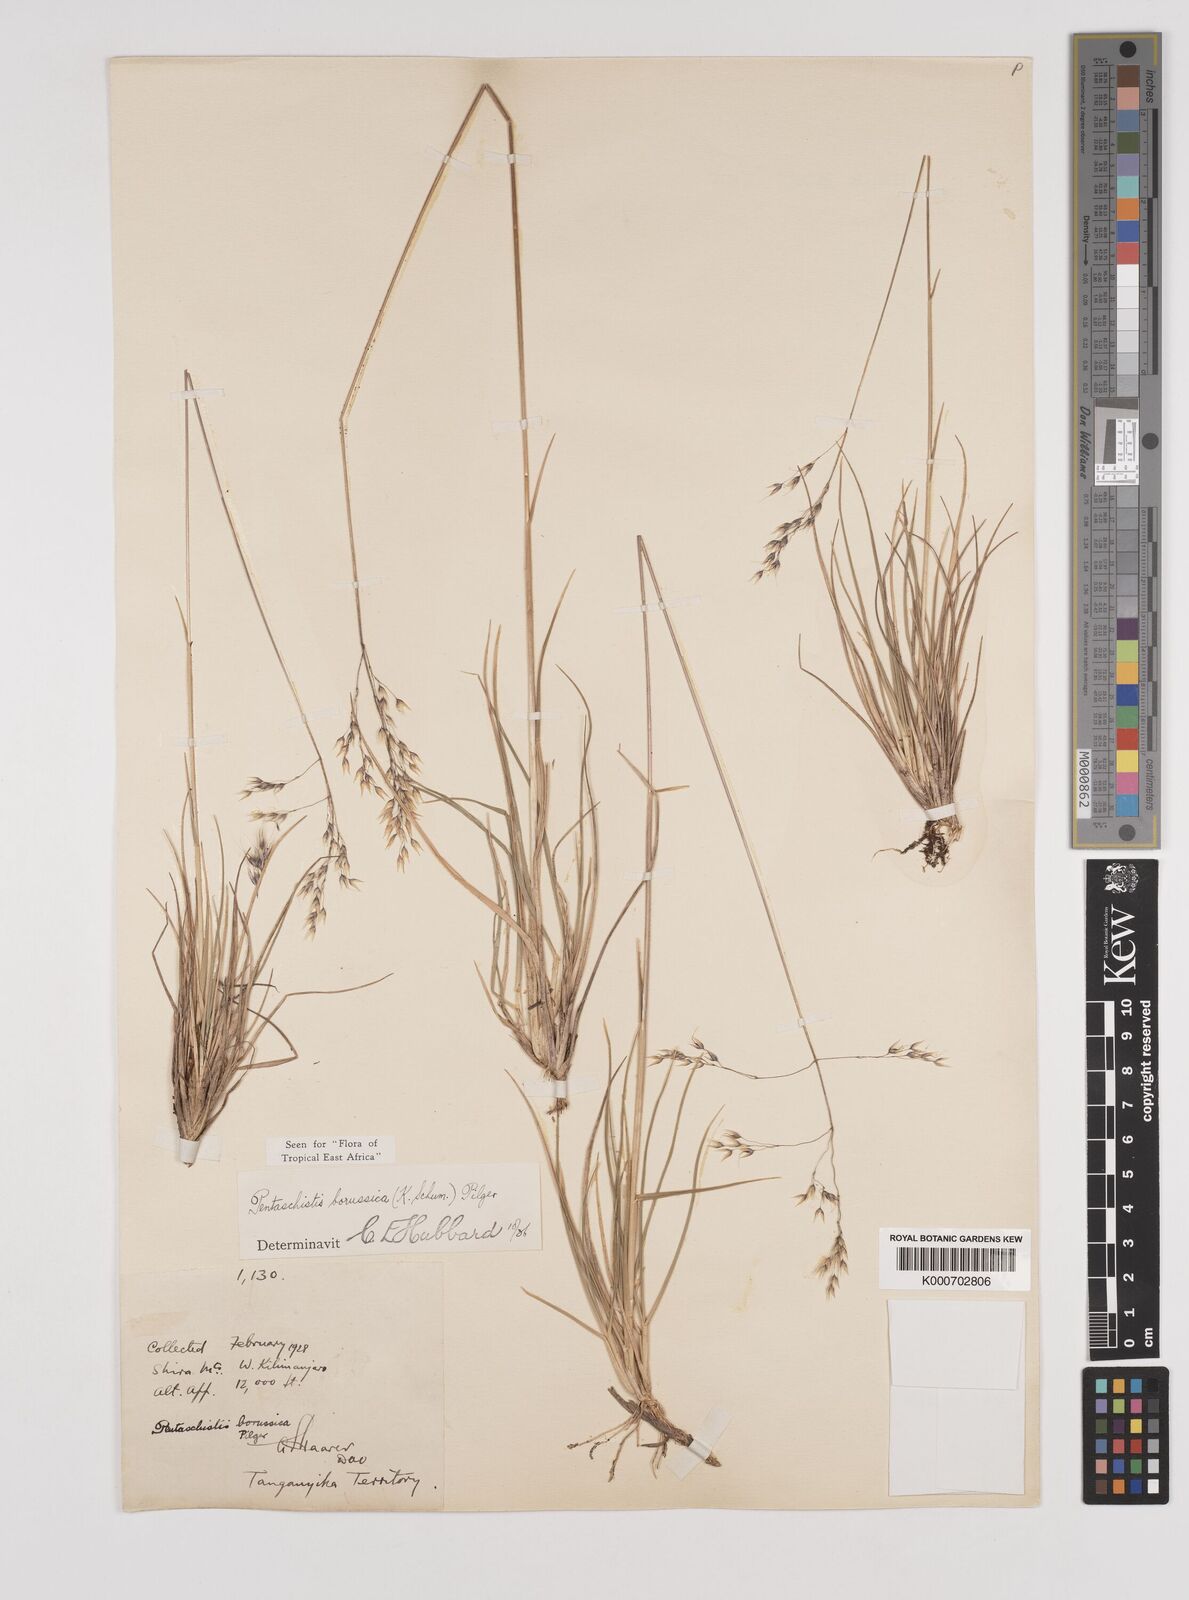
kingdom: Plantae
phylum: Tracheophyta
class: Liliopsida
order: Poales
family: Poaceae
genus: Pentameris
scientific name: Pentameris borussica
